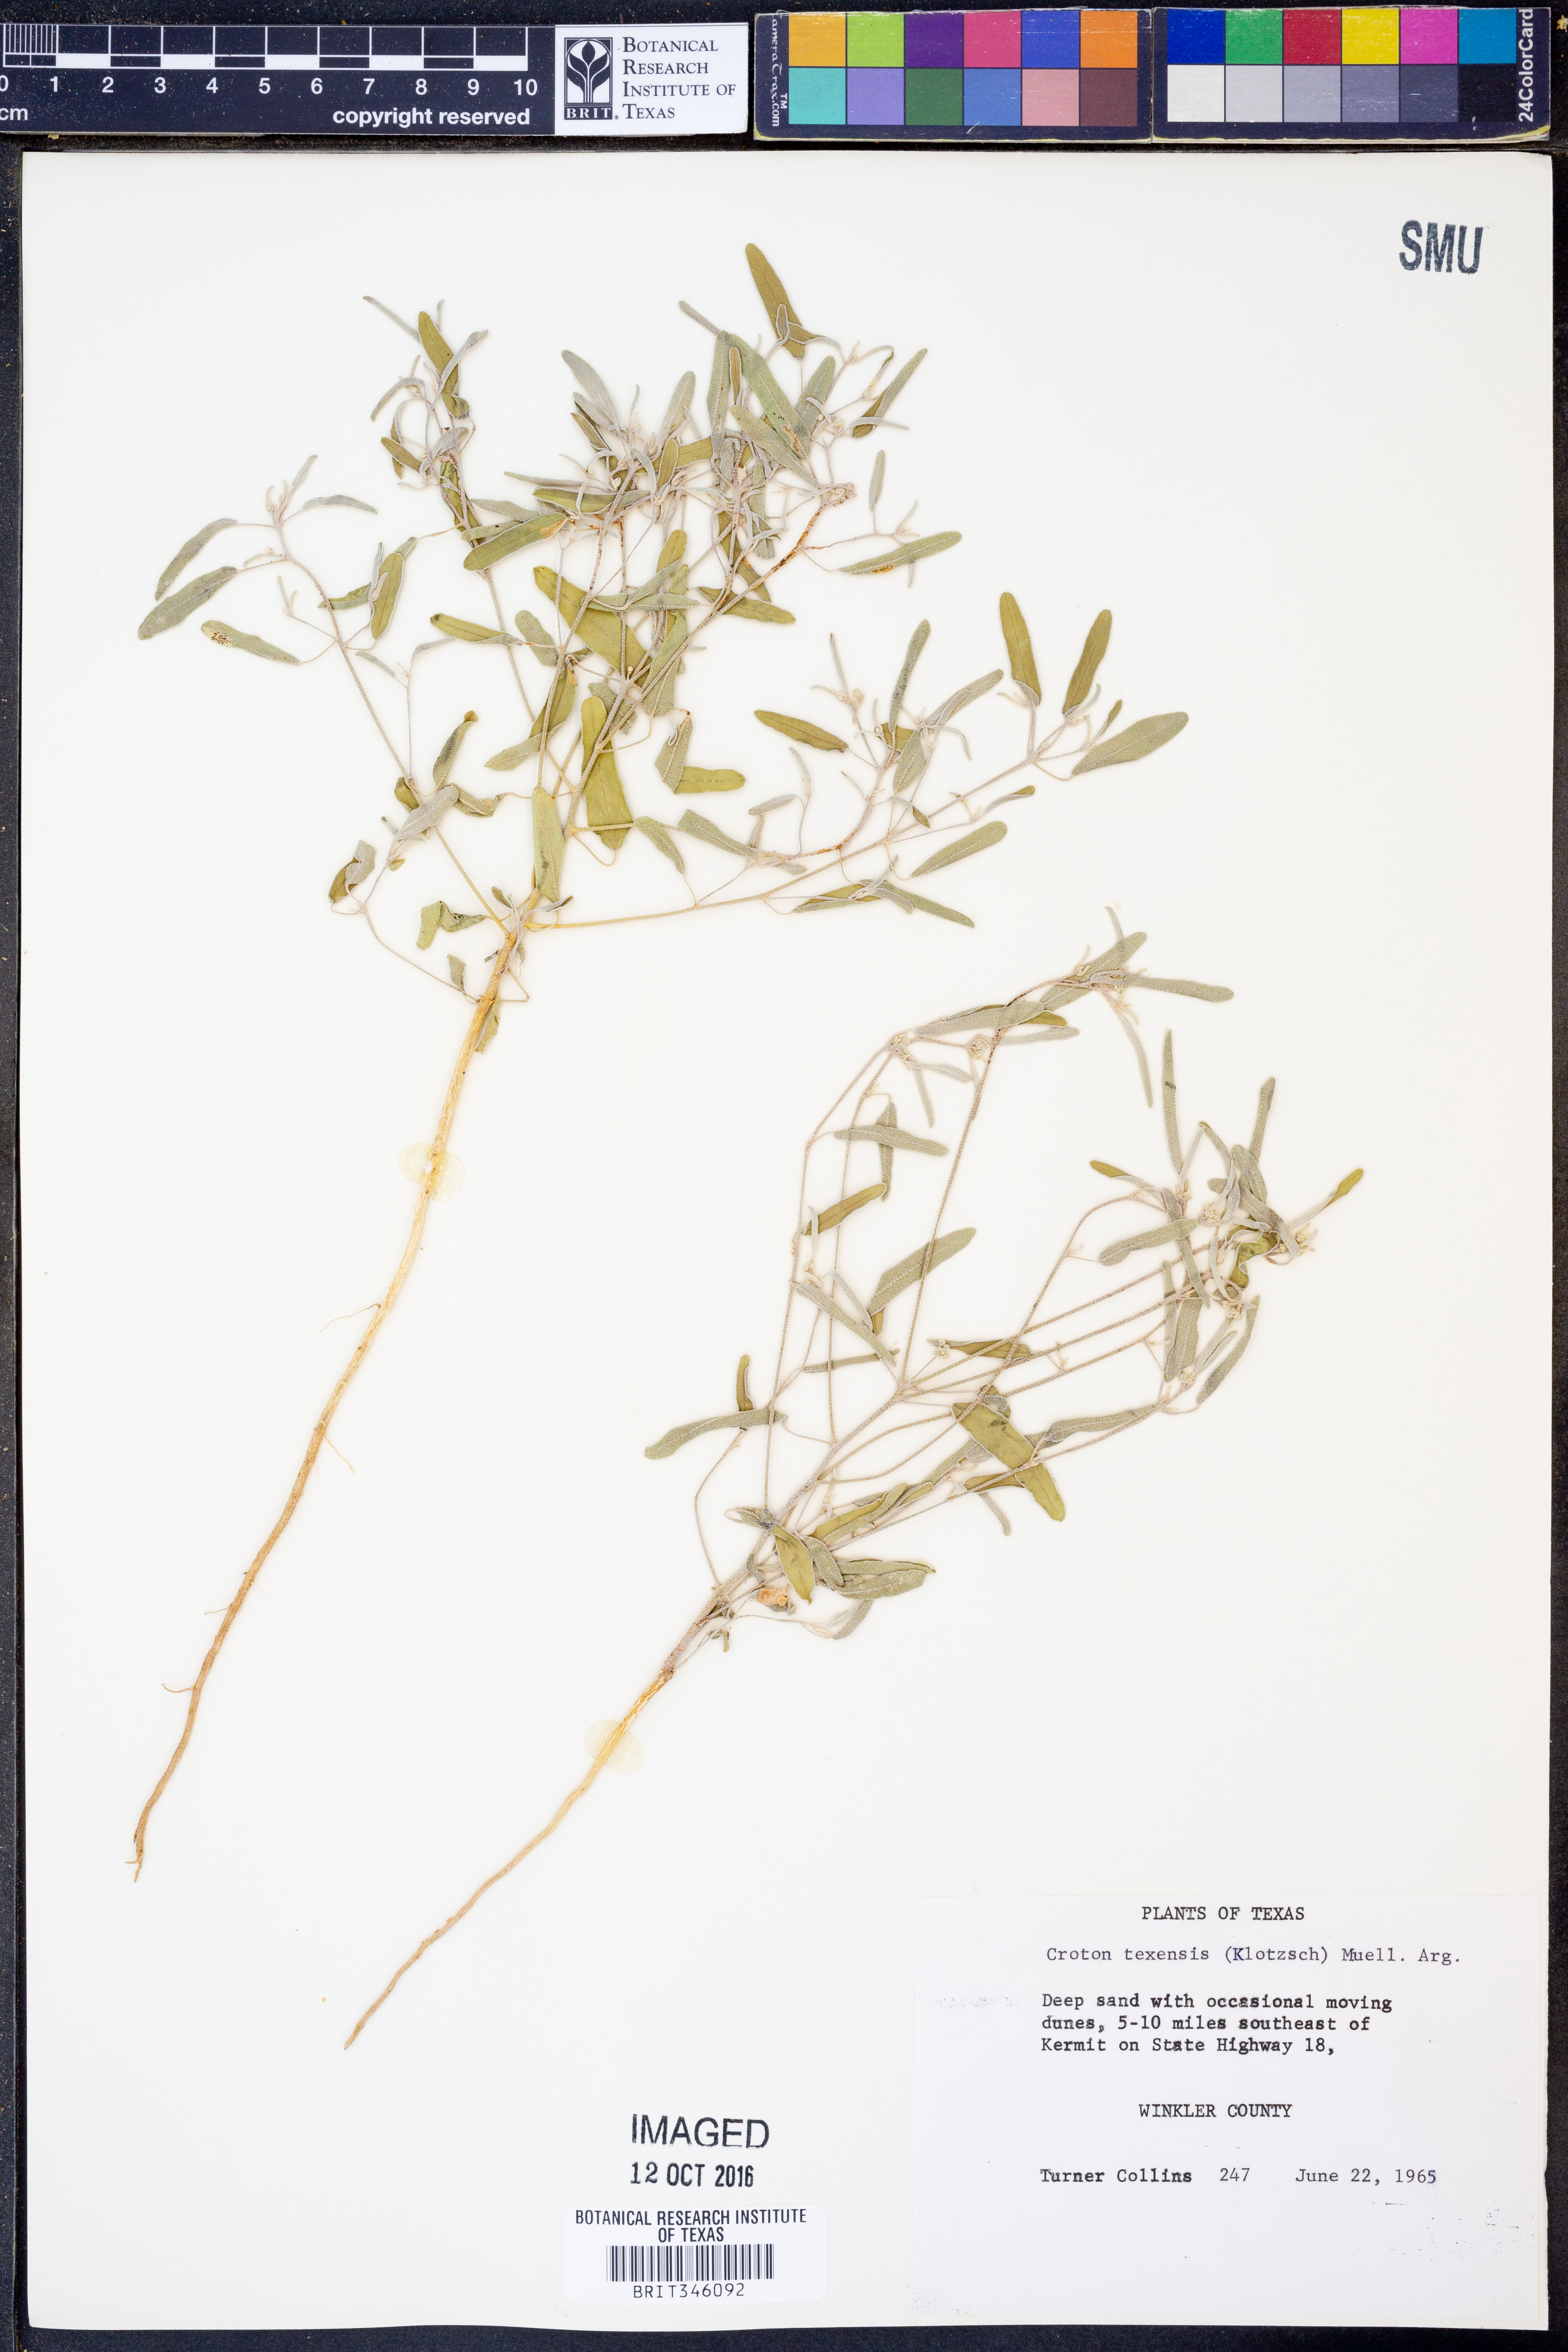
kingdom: Plantae
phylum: Tracheophyta
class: Magnoliopsida
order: Malpighiales
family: Euphorbiaceae
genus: Croton
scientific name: Croton texensis
